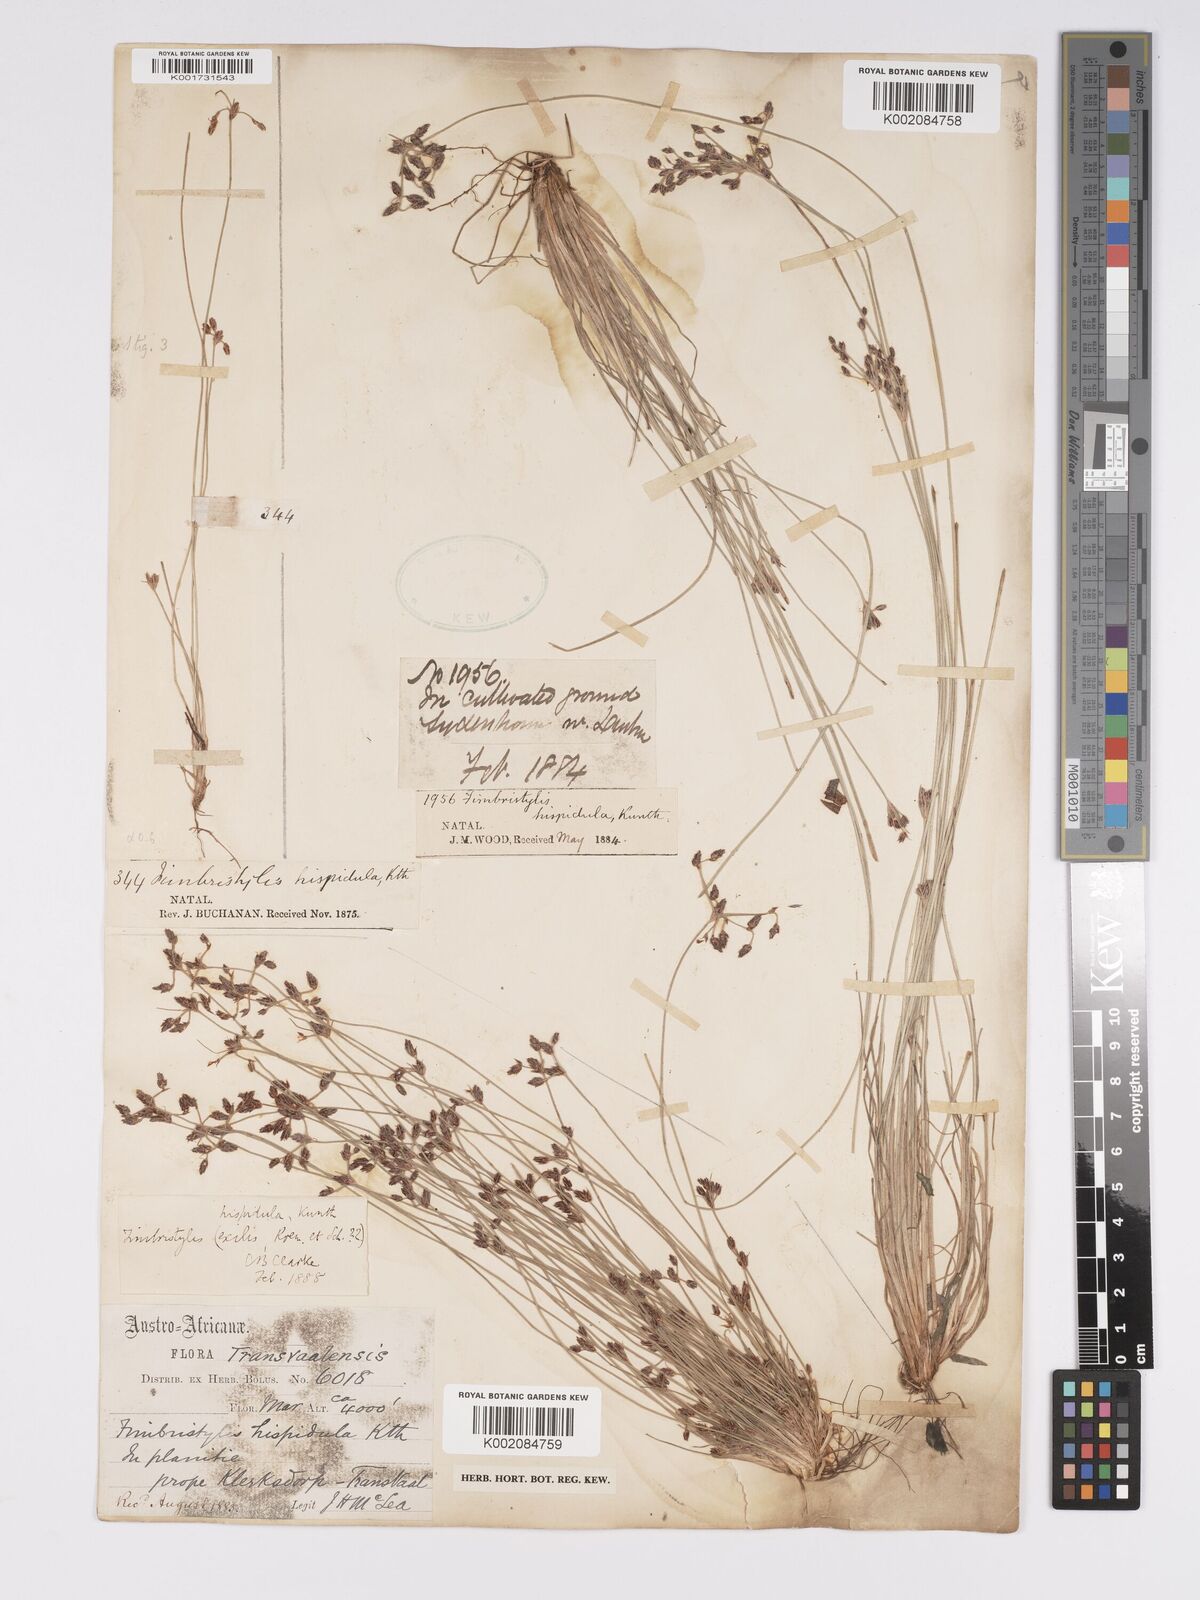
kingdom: Plantae
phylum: Tracheophyta
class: Liliopsida
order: Poales
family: Cyperaceae
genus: Bulbostylis
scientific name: Bulbostylis
